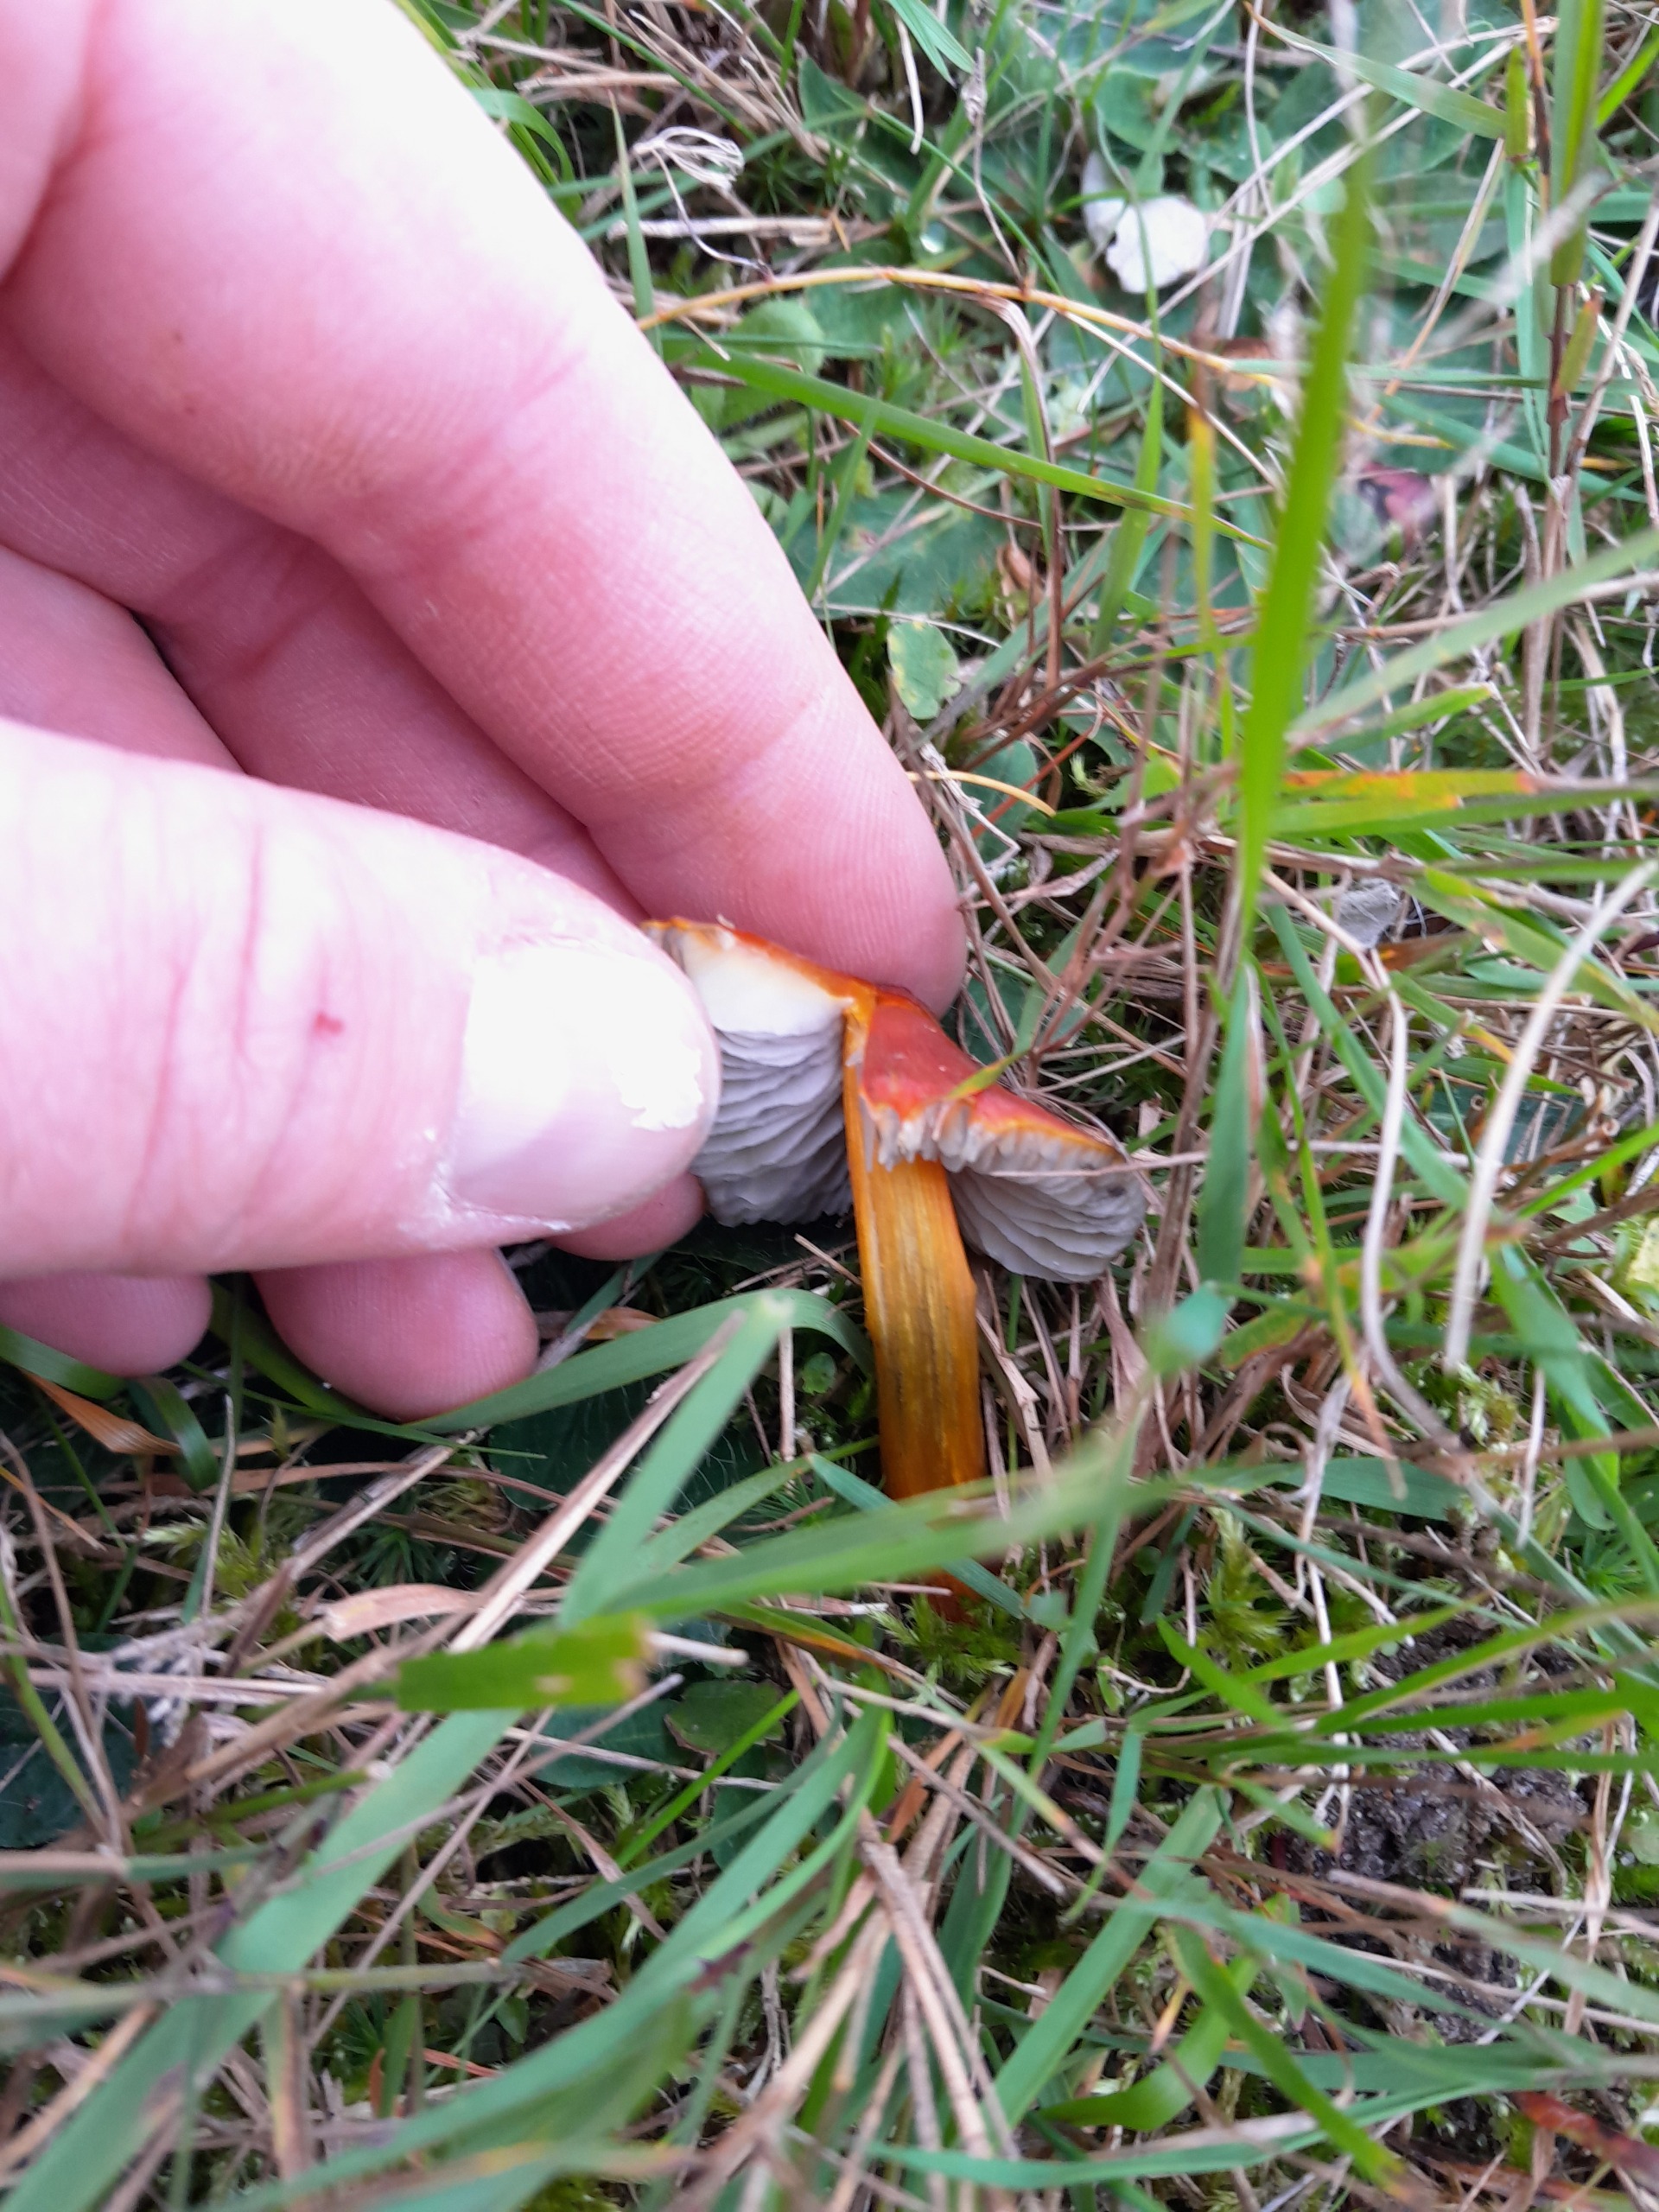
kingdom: Fungi
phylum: Basidiomycota
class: Agaricomycetes
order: Agaricales
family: Hygrophoraceae
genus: Hygrocybe
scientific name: Hygrocybe conica
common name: Kegle-vokshat
